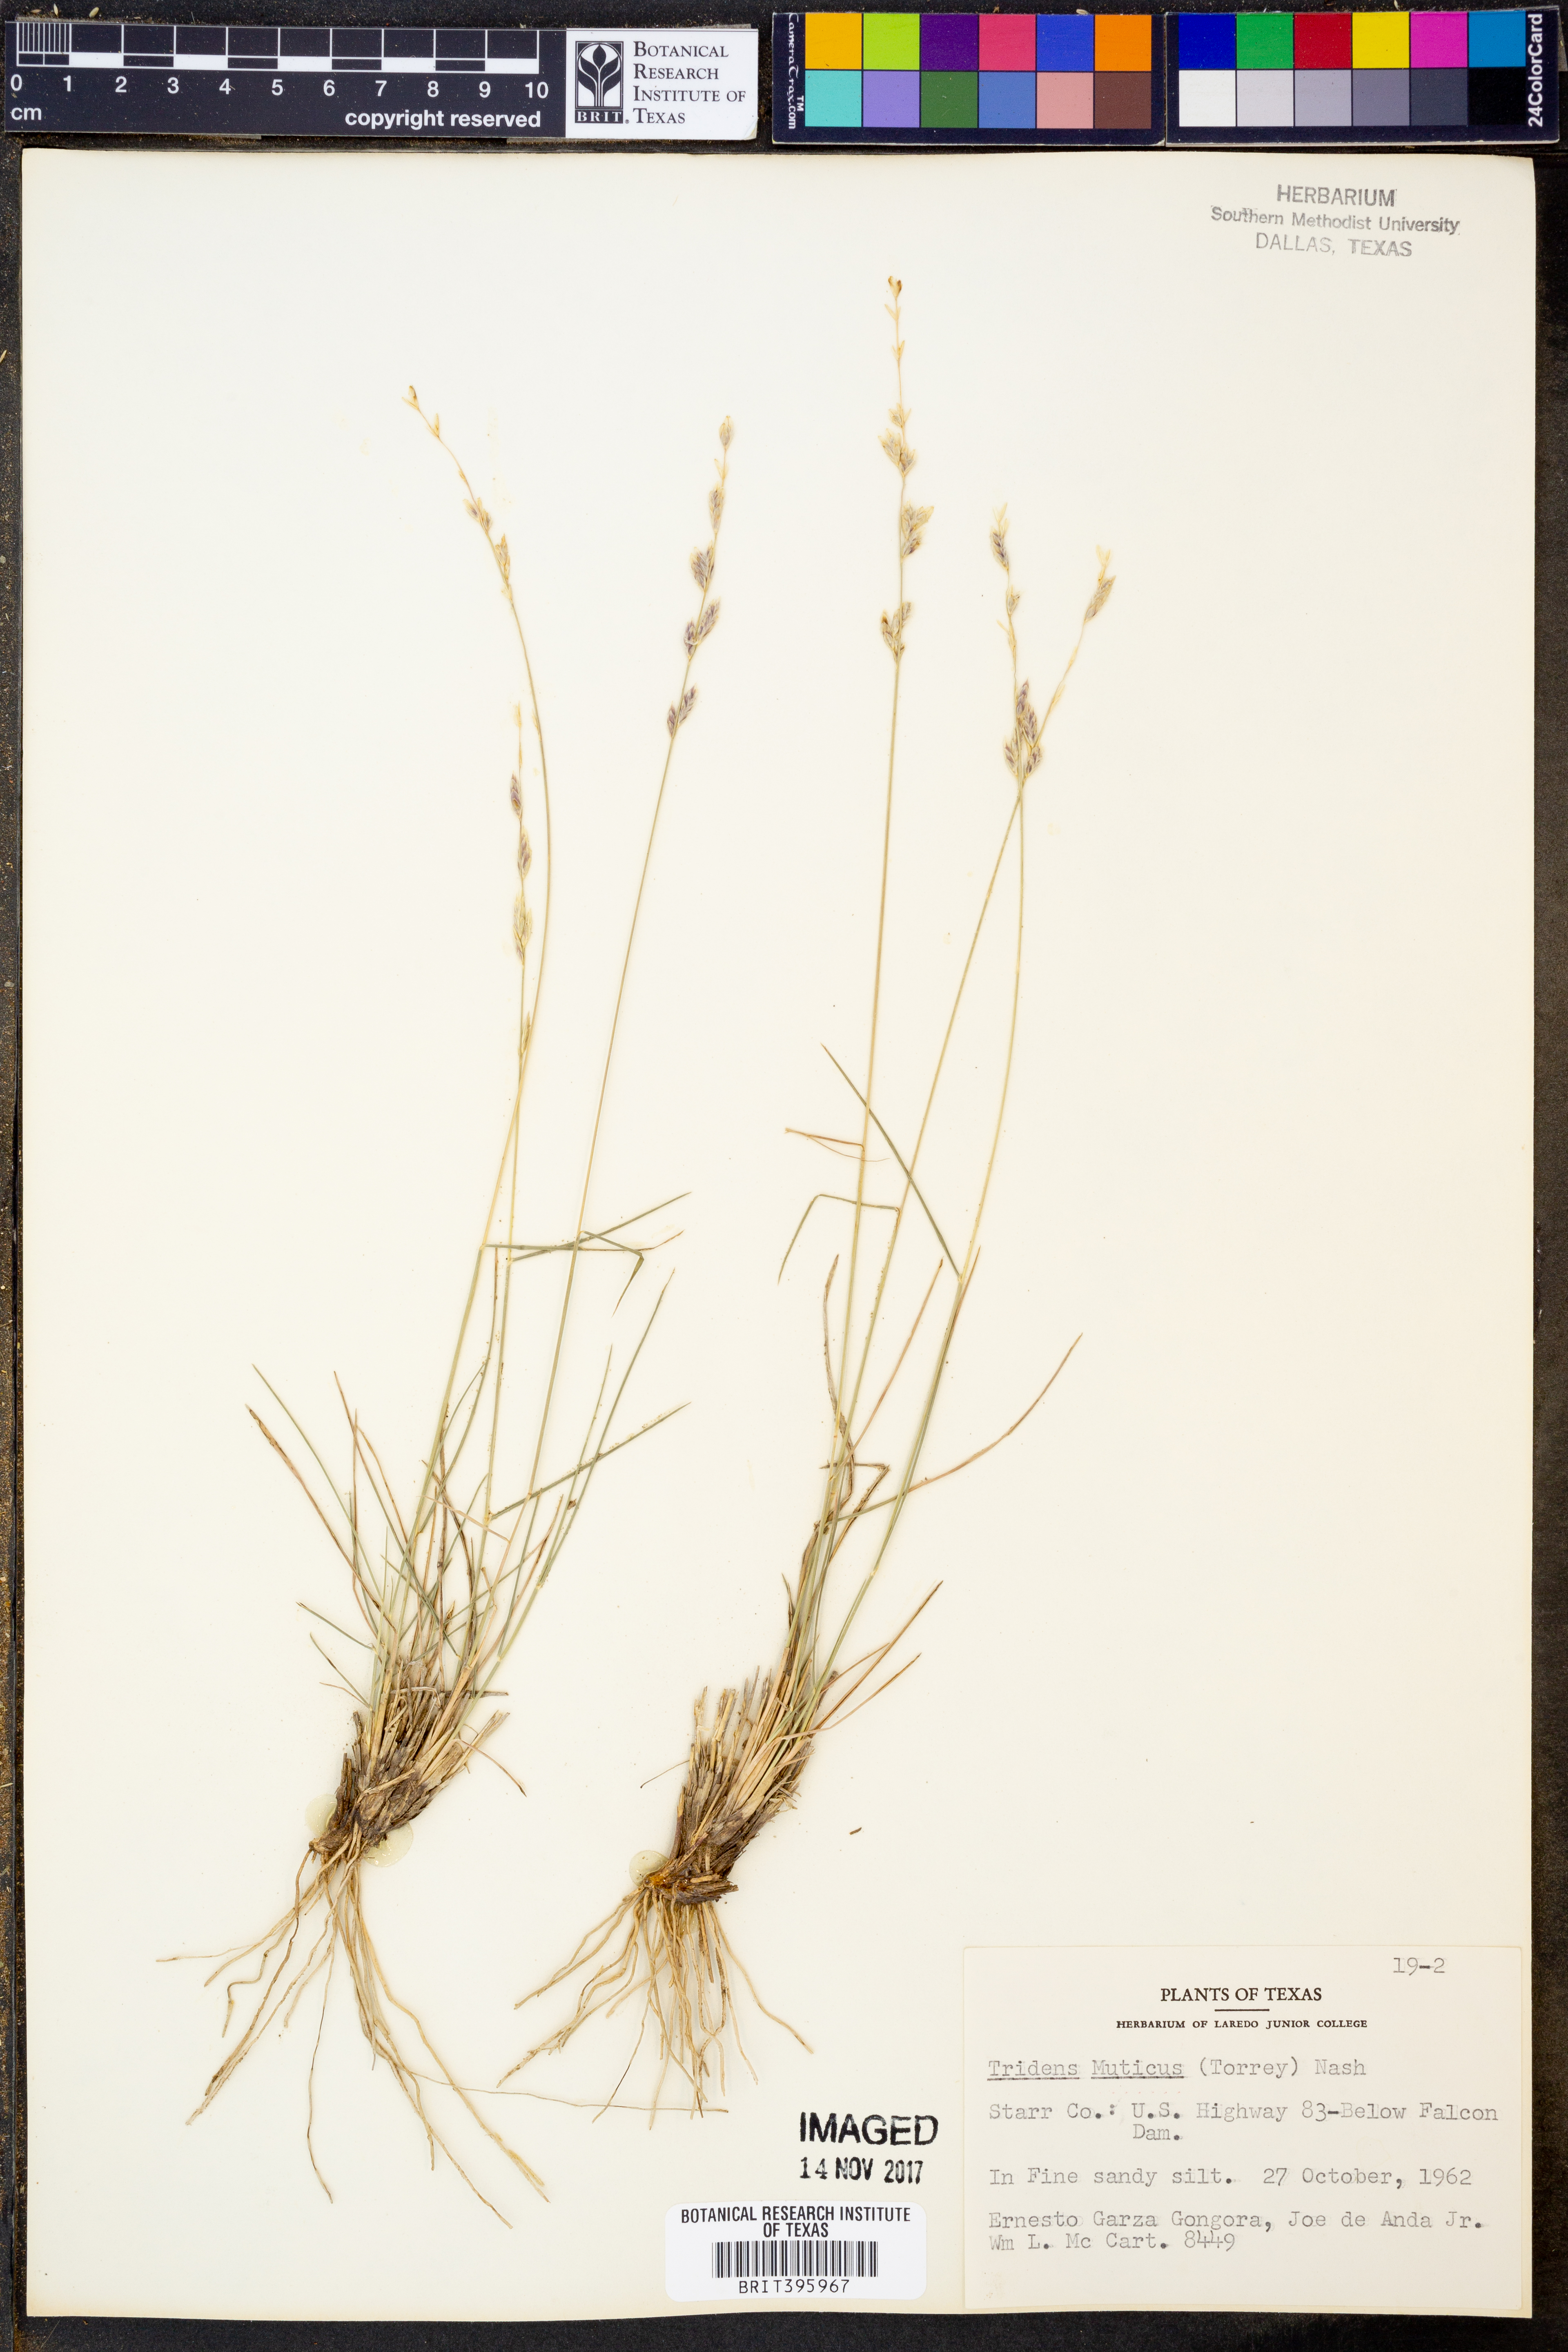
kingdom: Plantae
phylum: Tracheophyta
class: Liliopsida
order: Poales
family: Poaceae
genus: Tridentopsis
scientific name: Tridentopsis mutica
